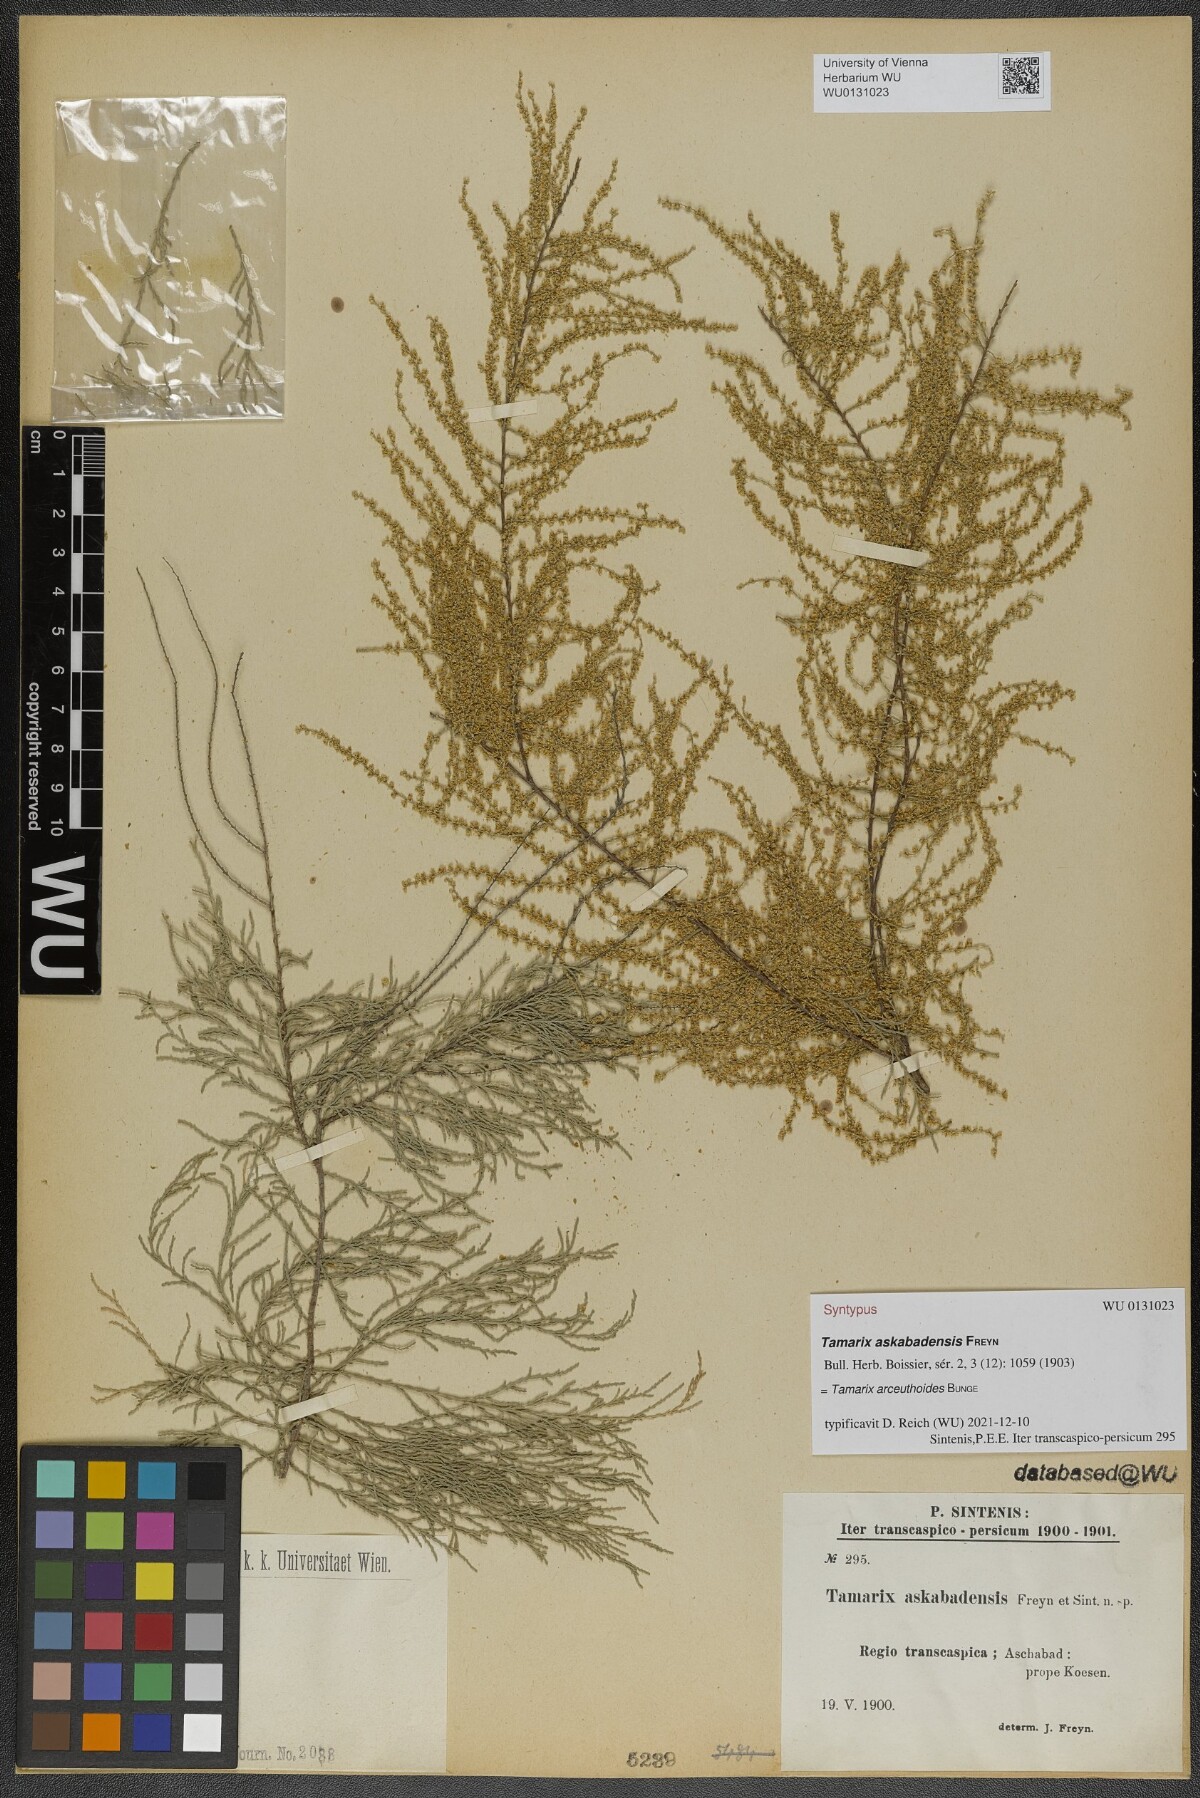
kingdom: Plantae
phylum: Tracheophyta
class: Magnoliopsida
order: Caryophyllales
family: Tamaricaceae
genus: Tamarix
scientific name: Tamarix florida
